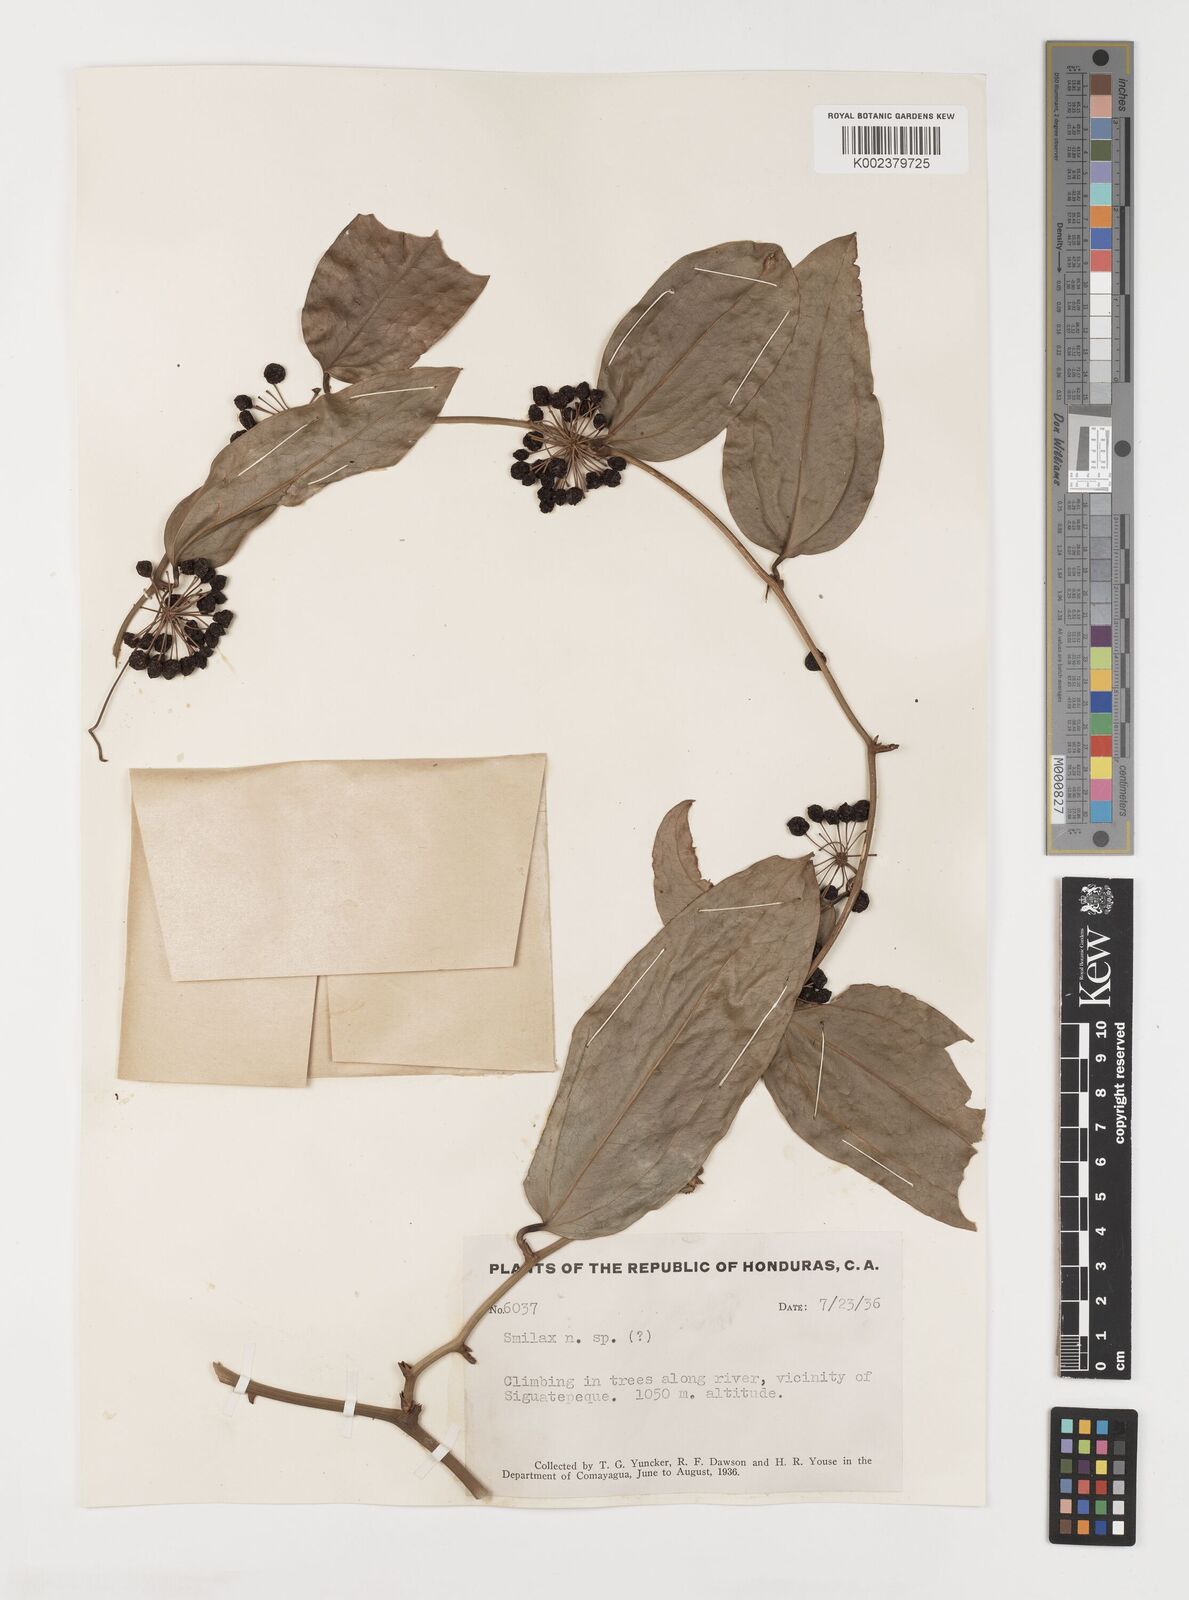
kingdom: Plantae
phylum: Tracheophyta
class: Liliopsida
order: Liliales
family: Smilacaceae
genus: Smilax
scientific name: Smilax
